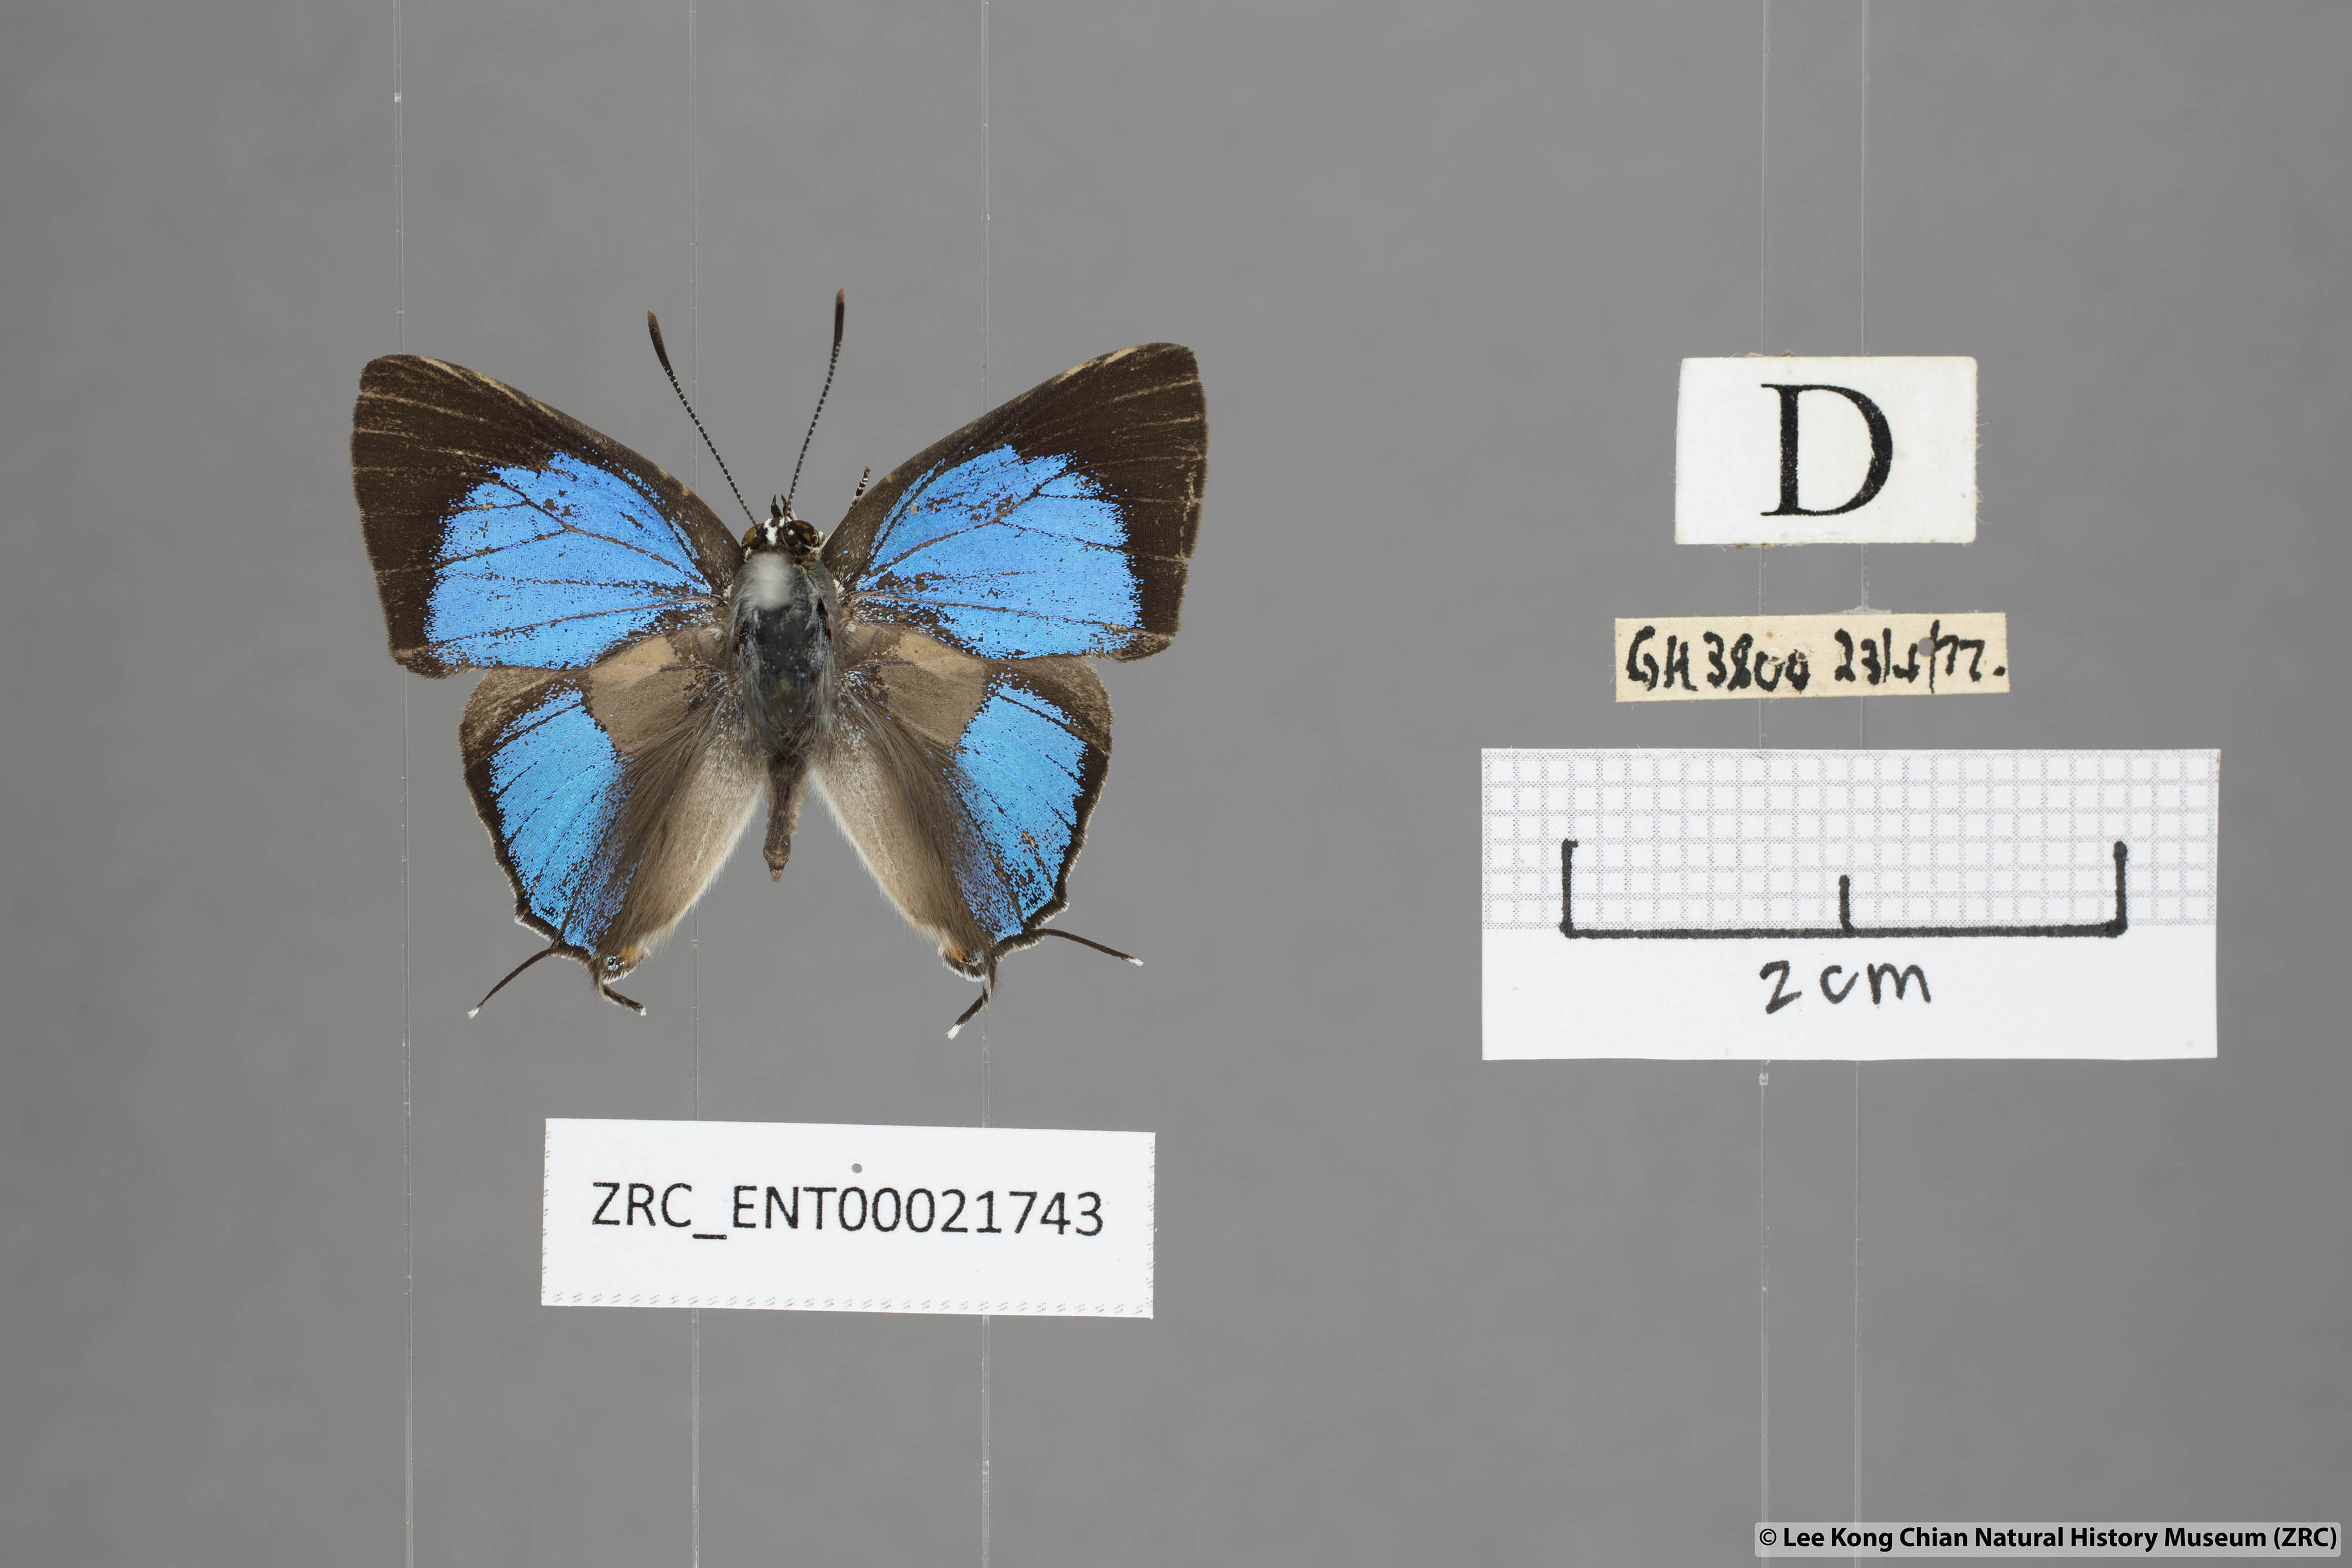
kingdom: Animalia
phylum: Arthropoda
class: Insecta
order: Lepidoptera
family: Lycaenidae
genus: Pratapa
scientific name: Pratapa
